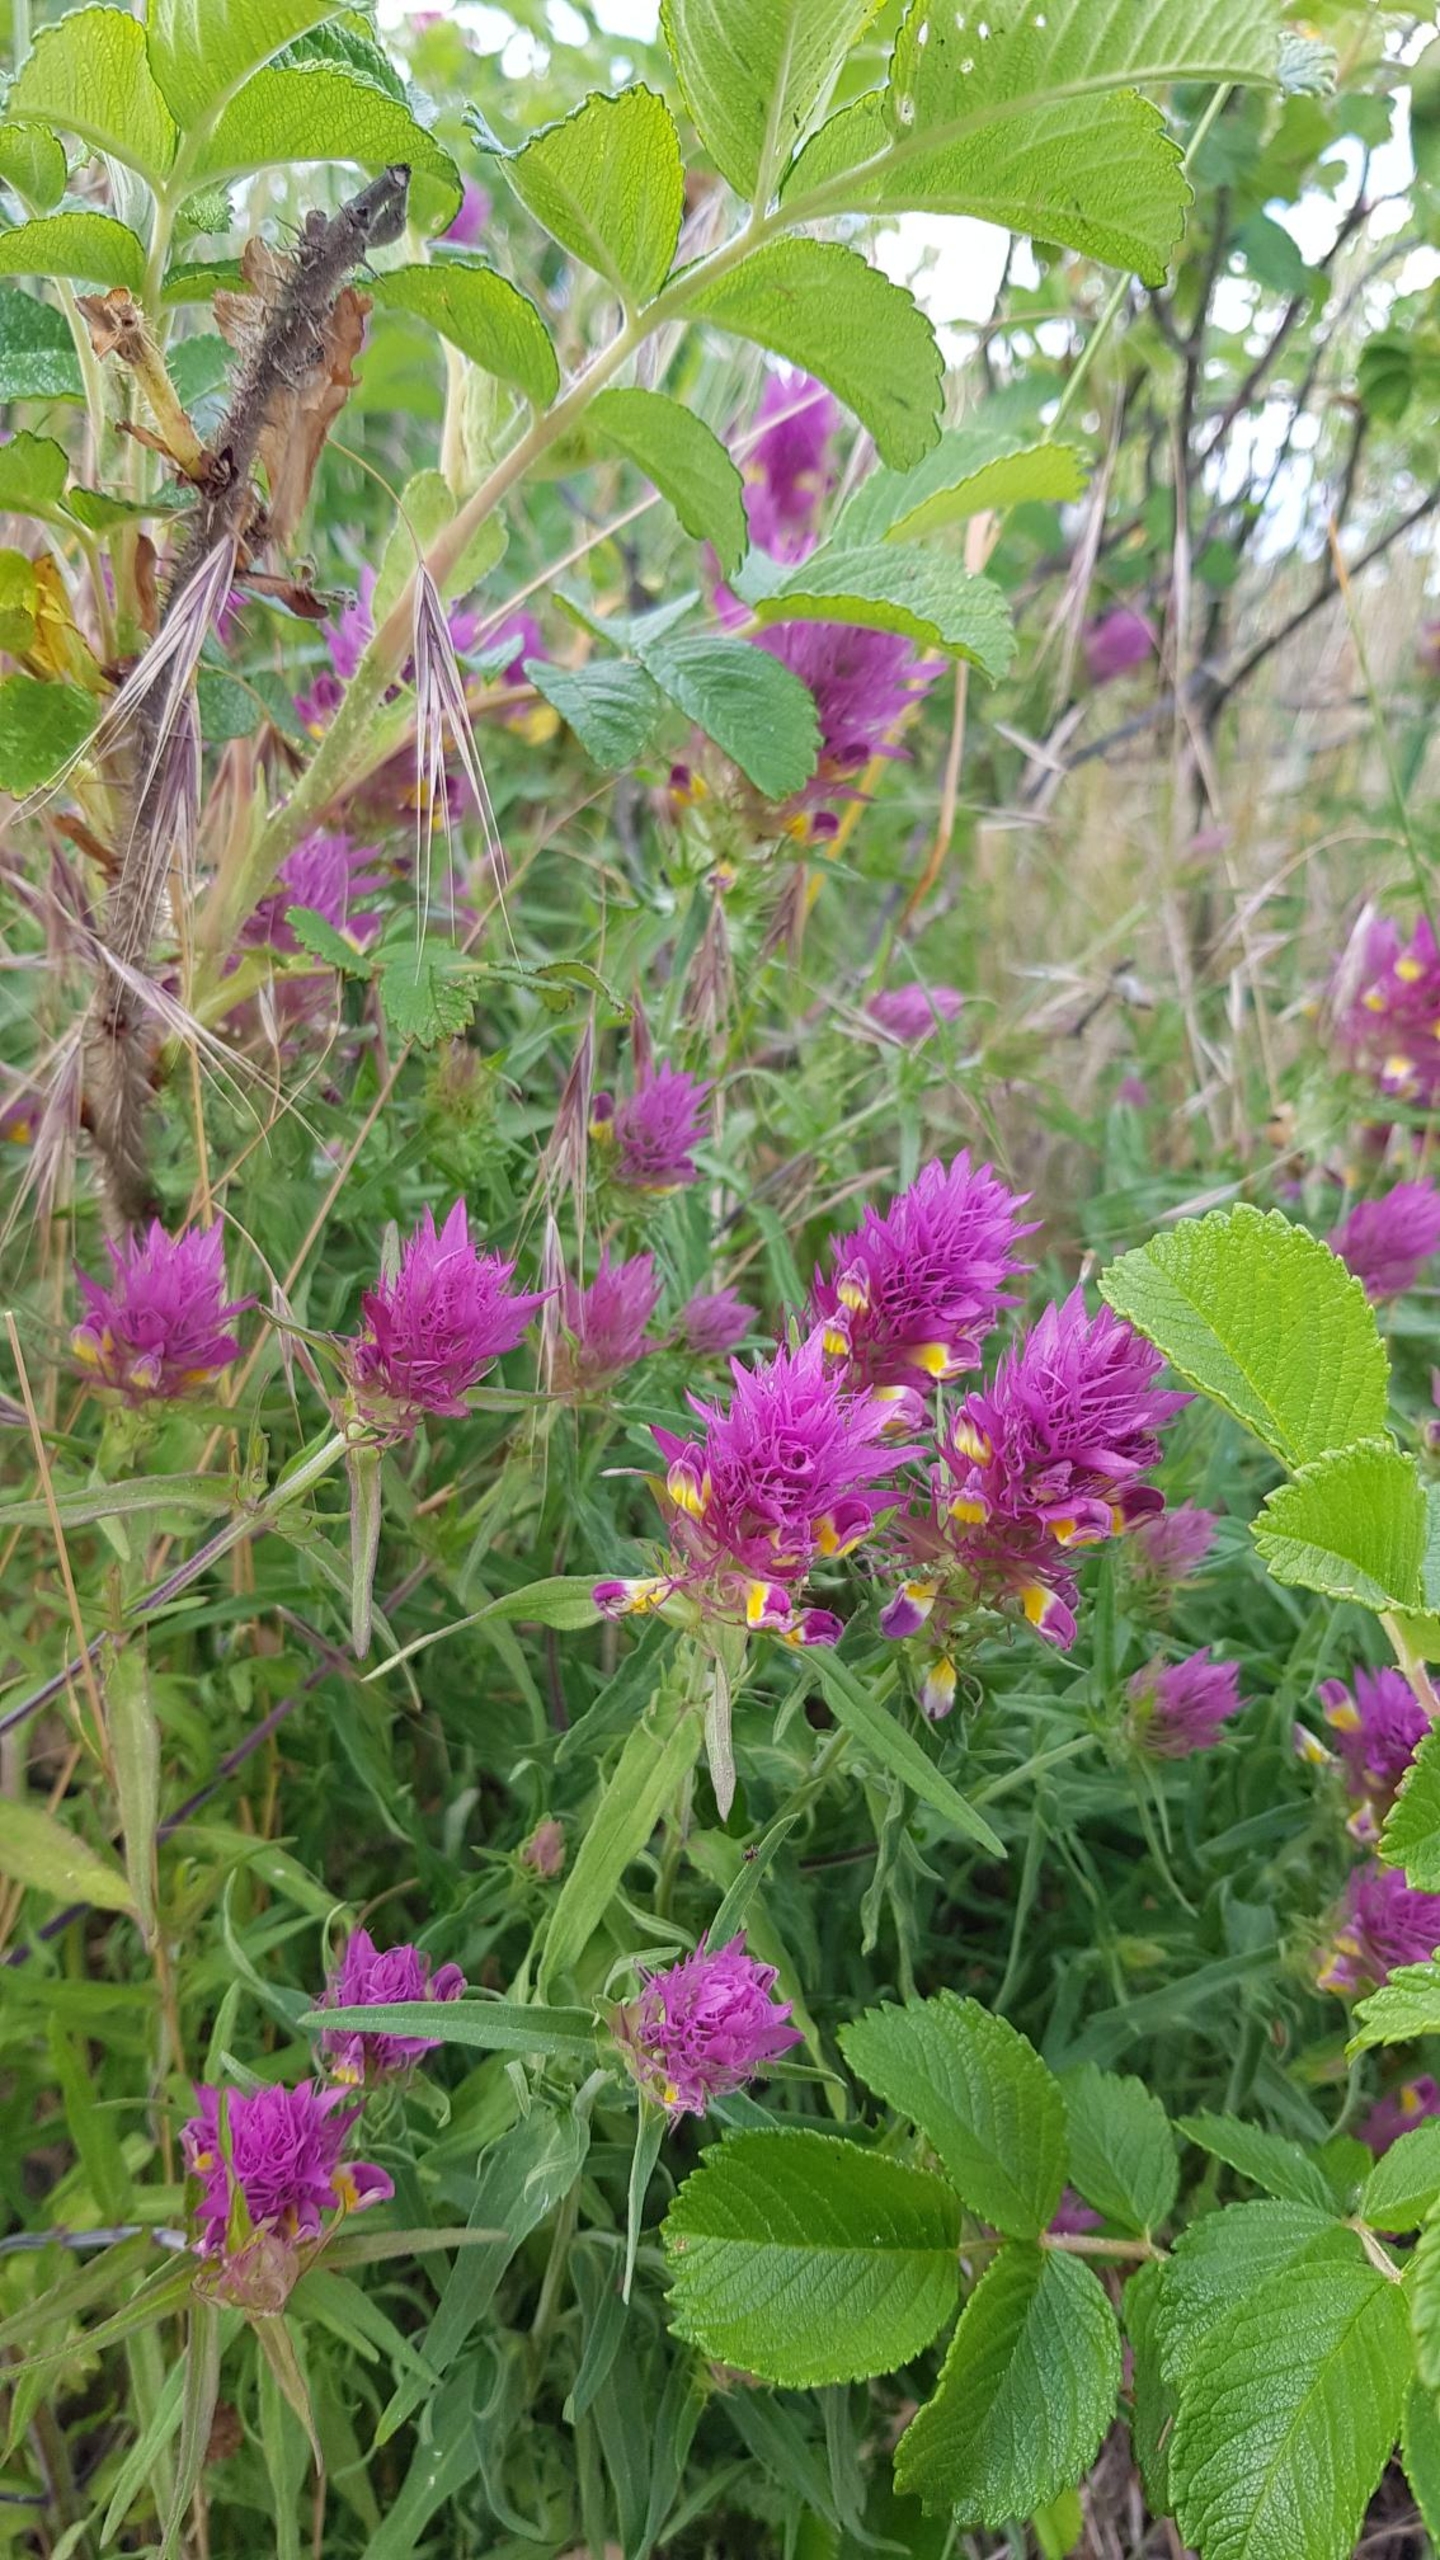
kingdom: Plantae
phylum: Tracheophyta
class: Magnoliopsida
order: Lamiales
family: Orobanchaceae
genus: Melampyrum
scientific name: Melampyrum arvense
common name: Ager-kohvede
